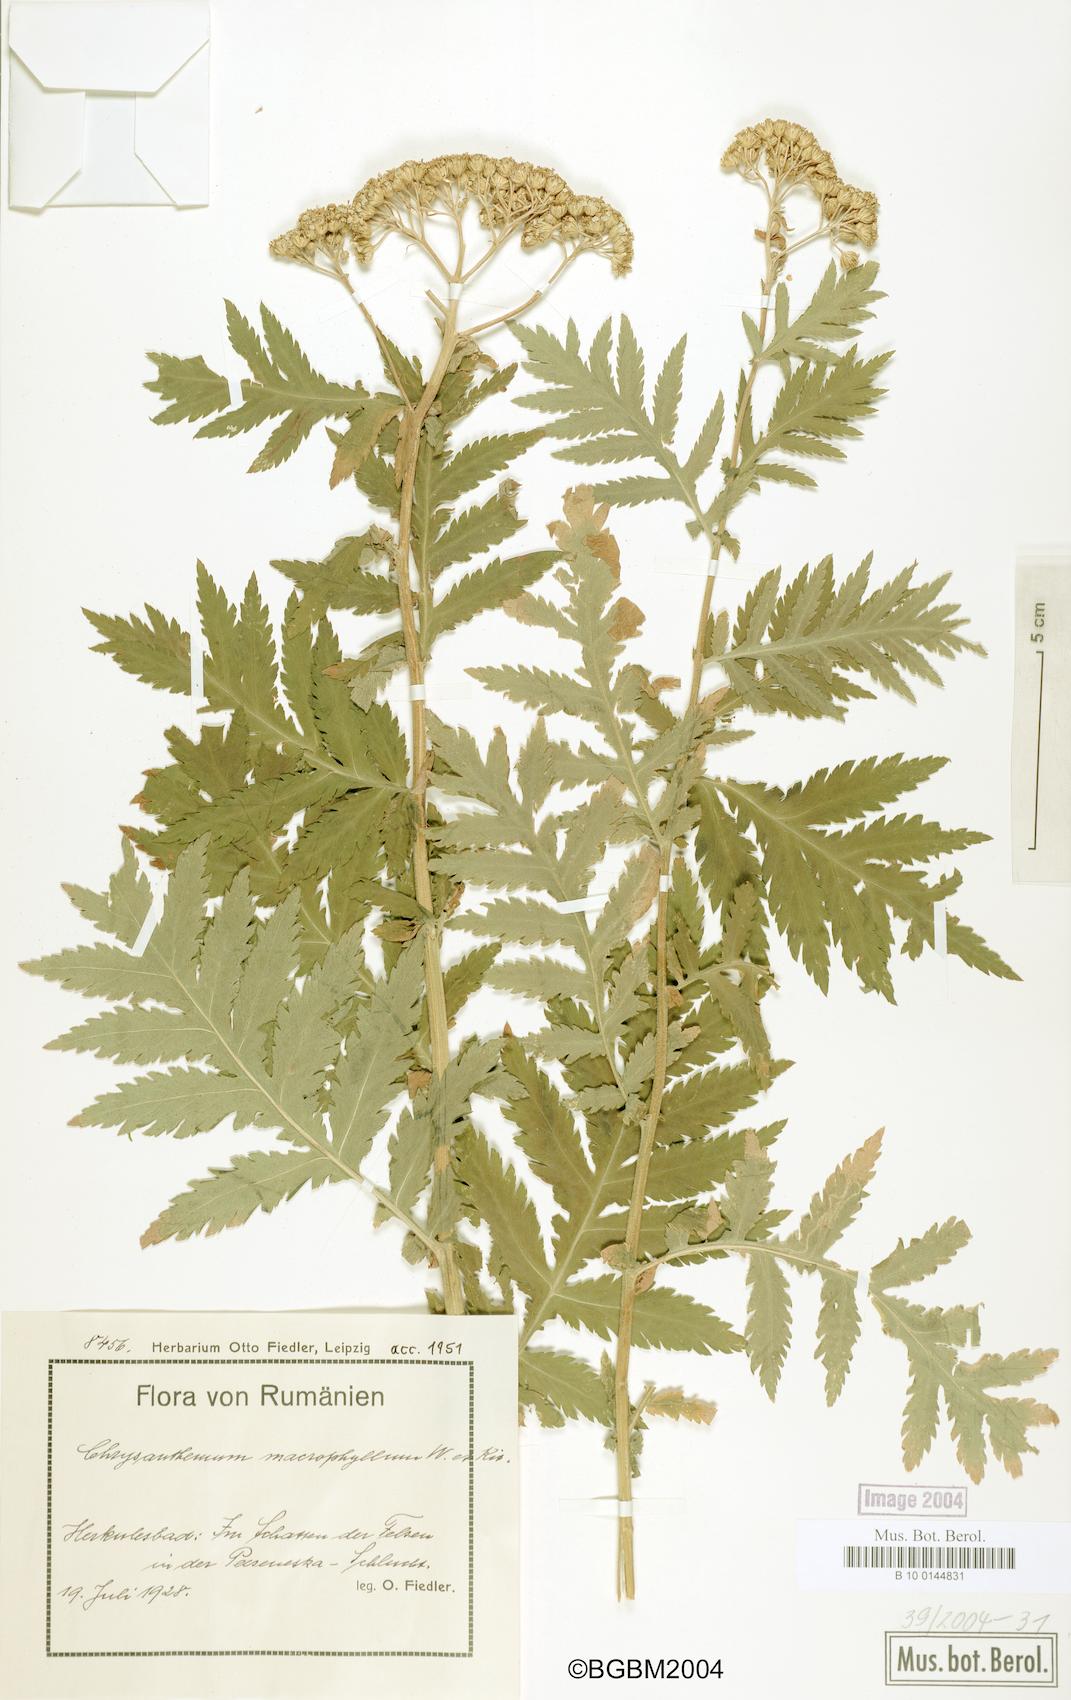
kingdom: Plantae
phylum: Tracheophyta
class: Magnoliopsida
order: Asterales
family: Asteraceae
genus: Tanacetum
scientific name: Tanacetum macrophyllum
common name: Rayed tansy
